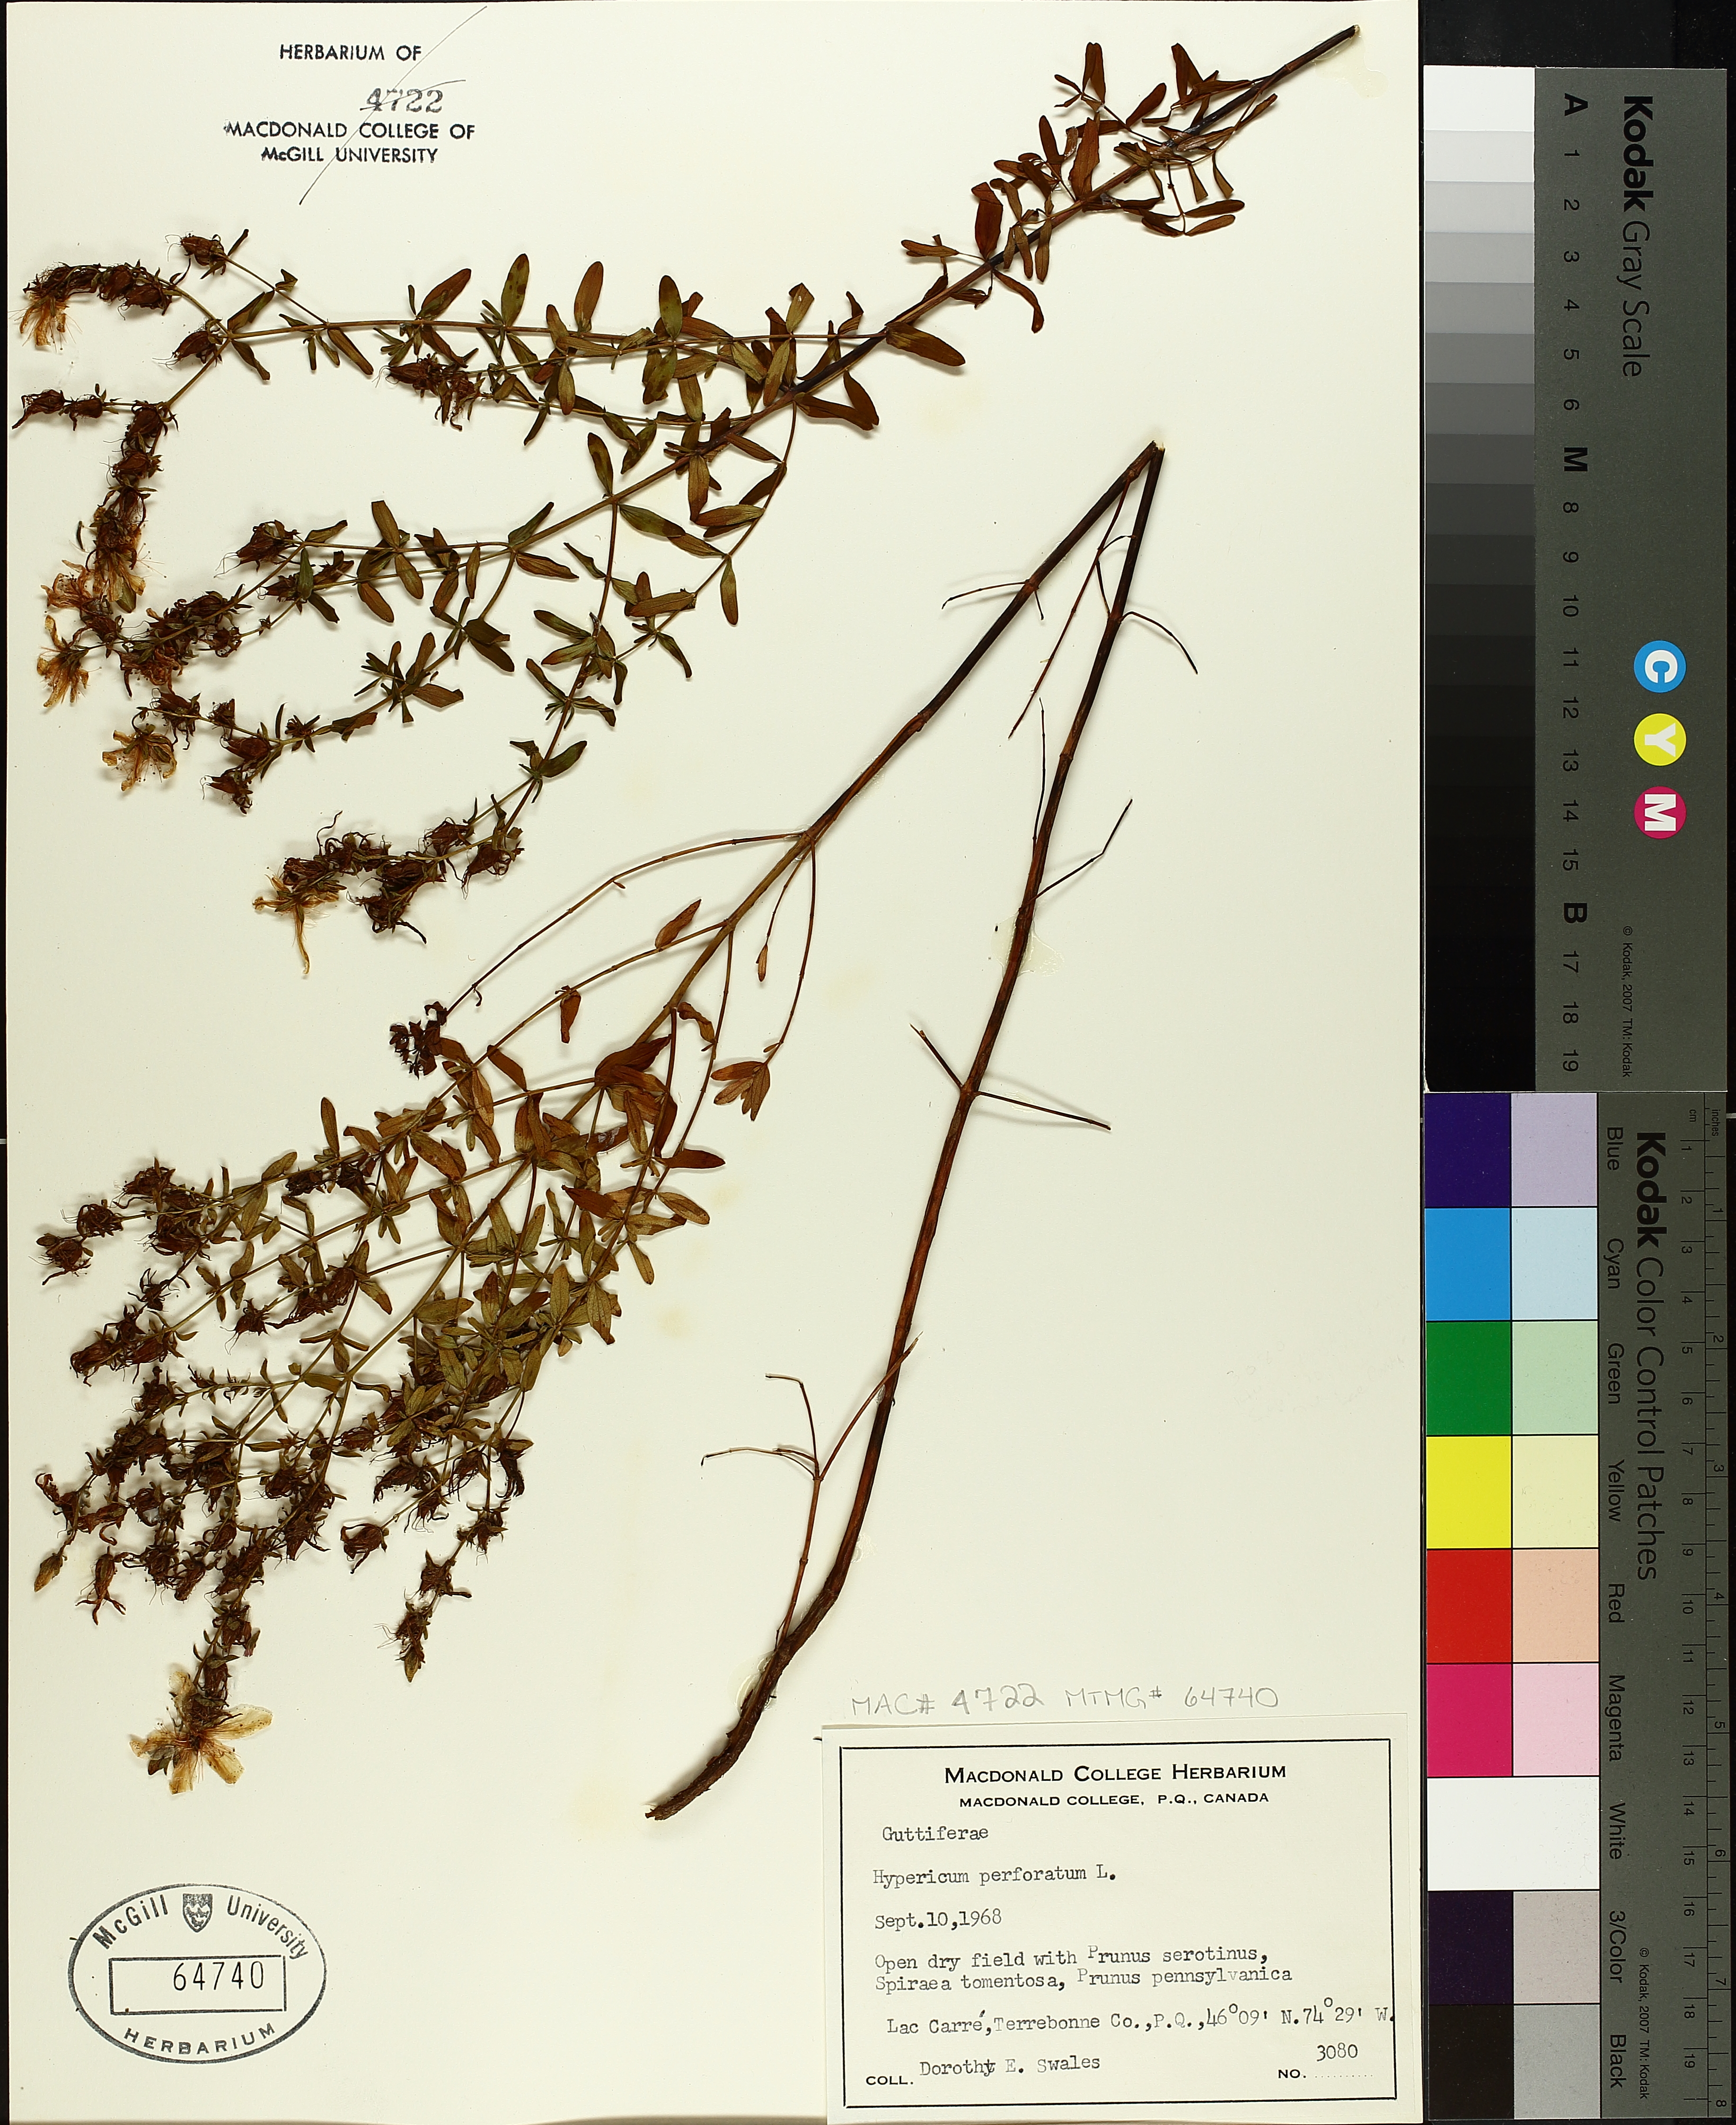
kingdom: Plantae
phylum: Tracheophyta
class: Magnoliopsida
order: Malpighiales
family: Hypericaceae
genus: Hypericum
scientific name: Hypericum perforatum
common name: Common st. johnswort
